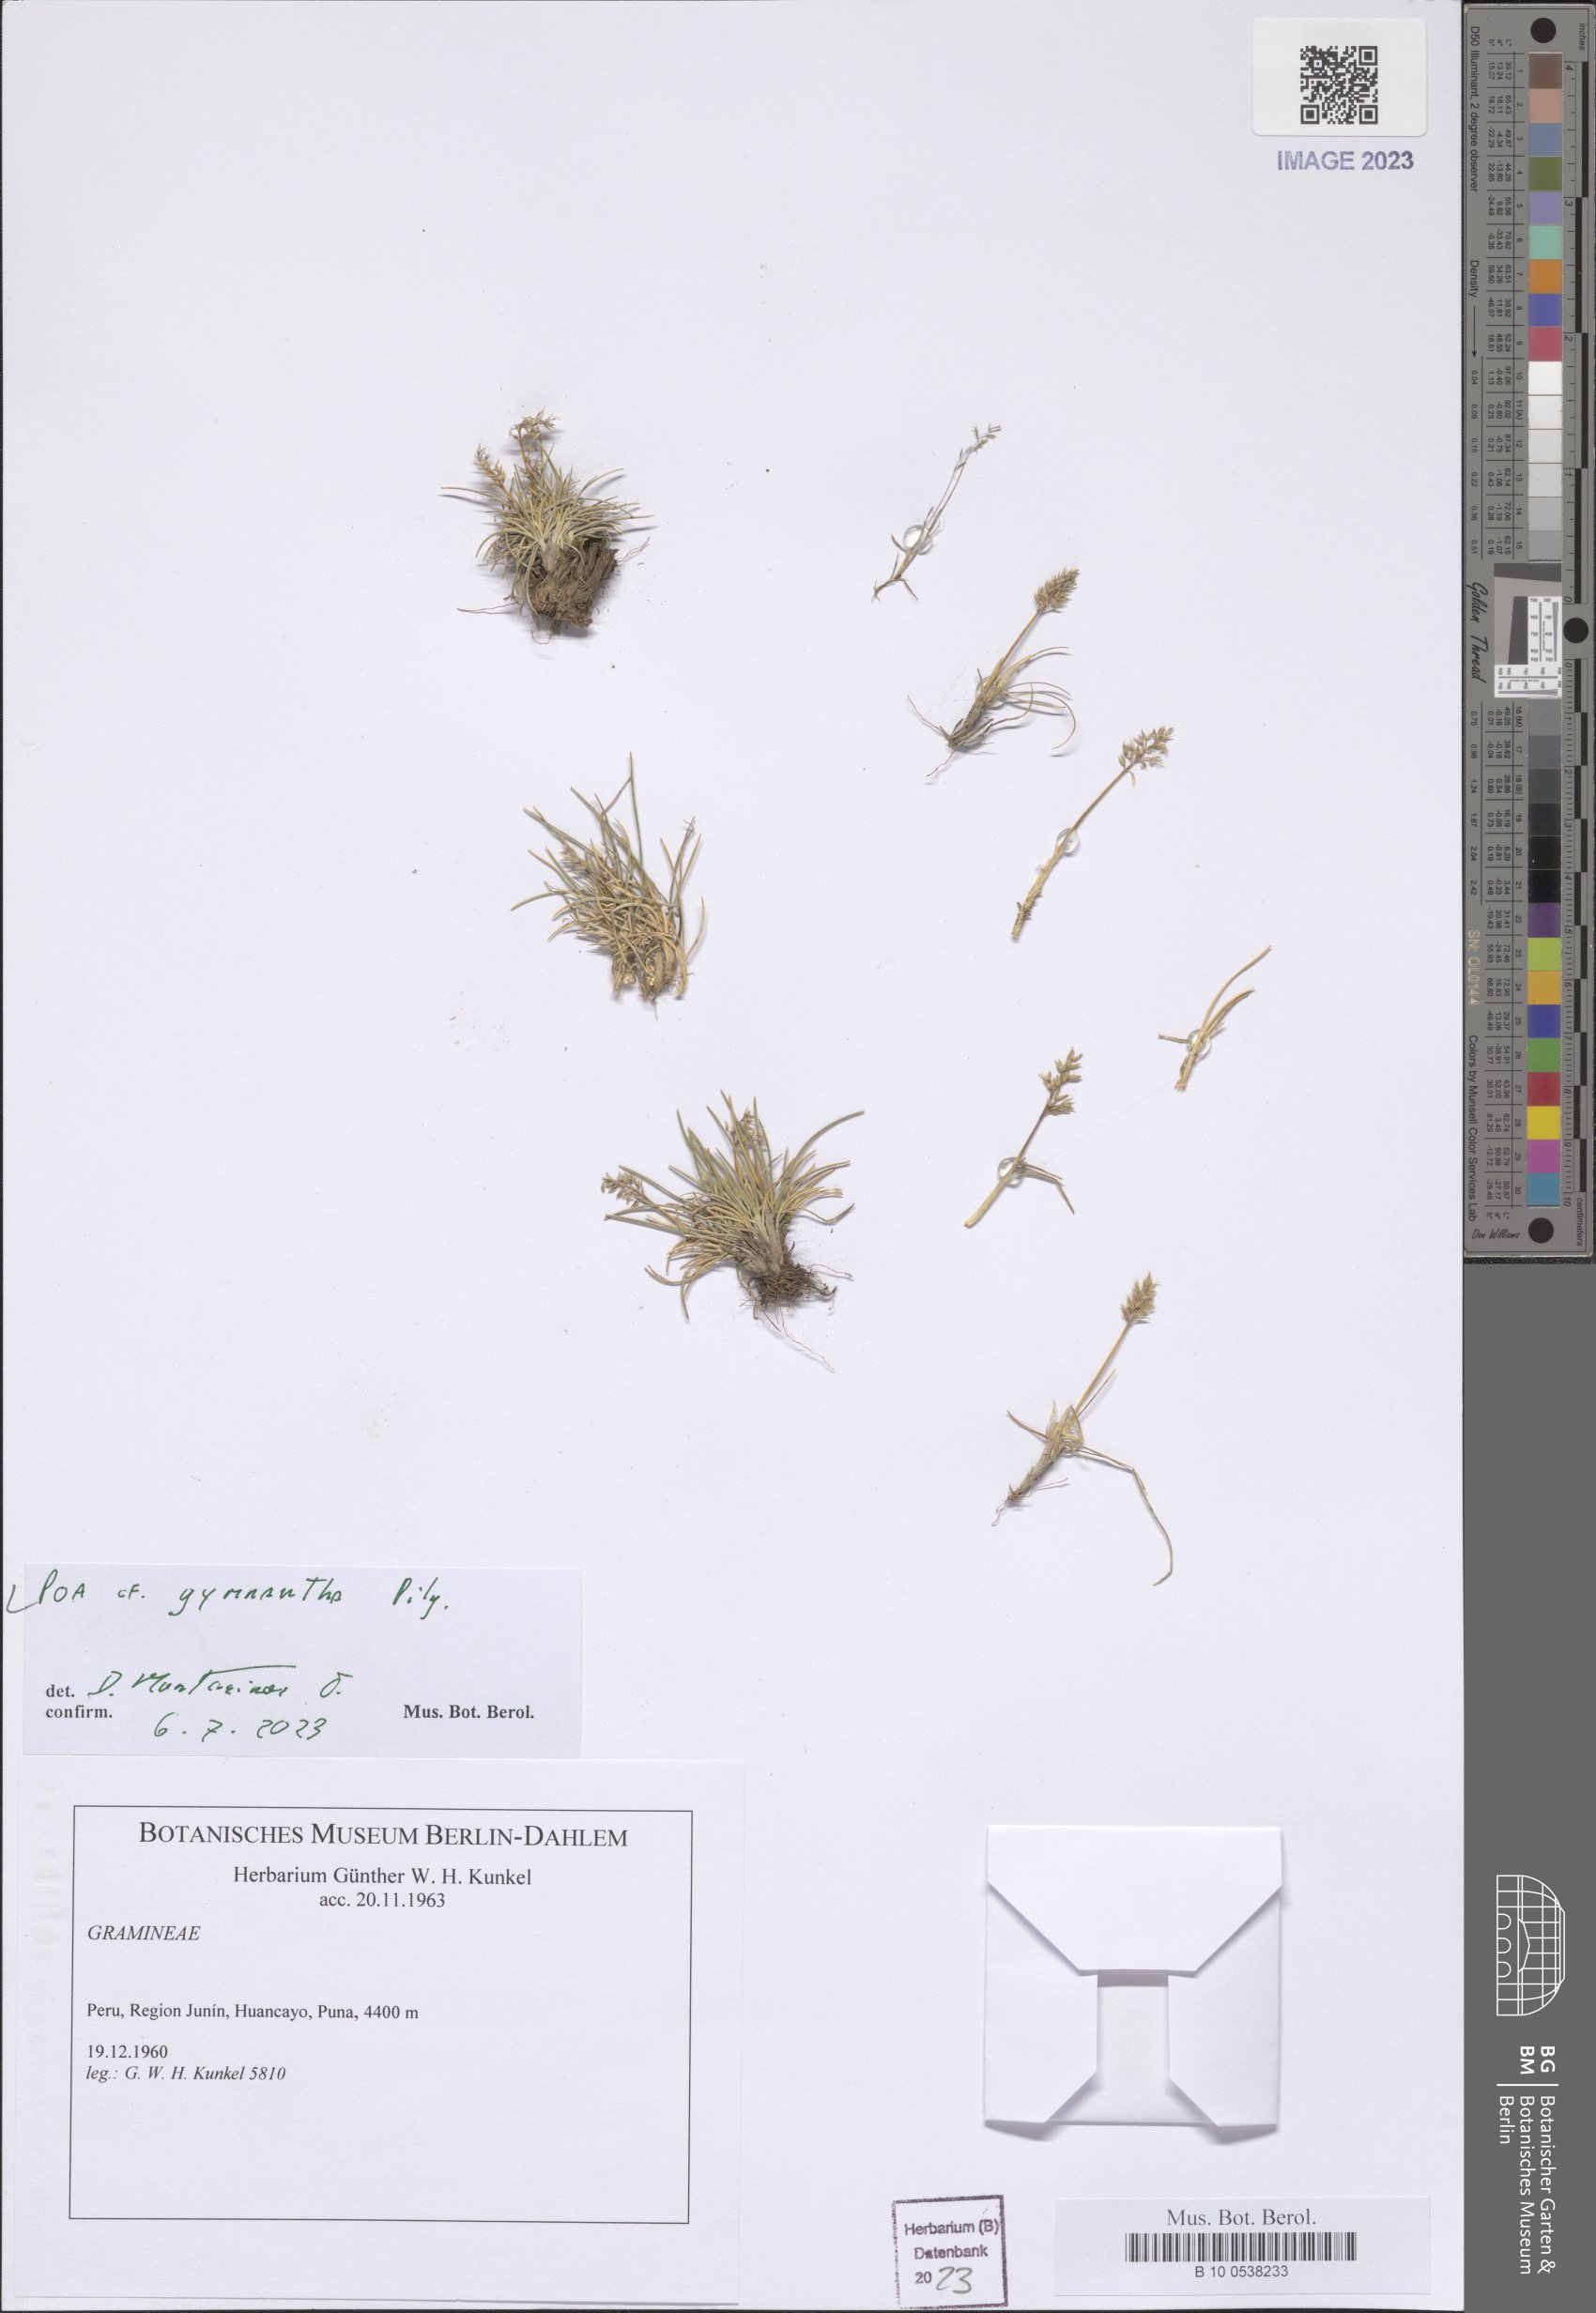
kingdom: Plantae
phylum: Tracheophyta
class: Liliopsida
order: Poales
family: Poaceae
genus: Poa
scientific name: Poa gymnantha
